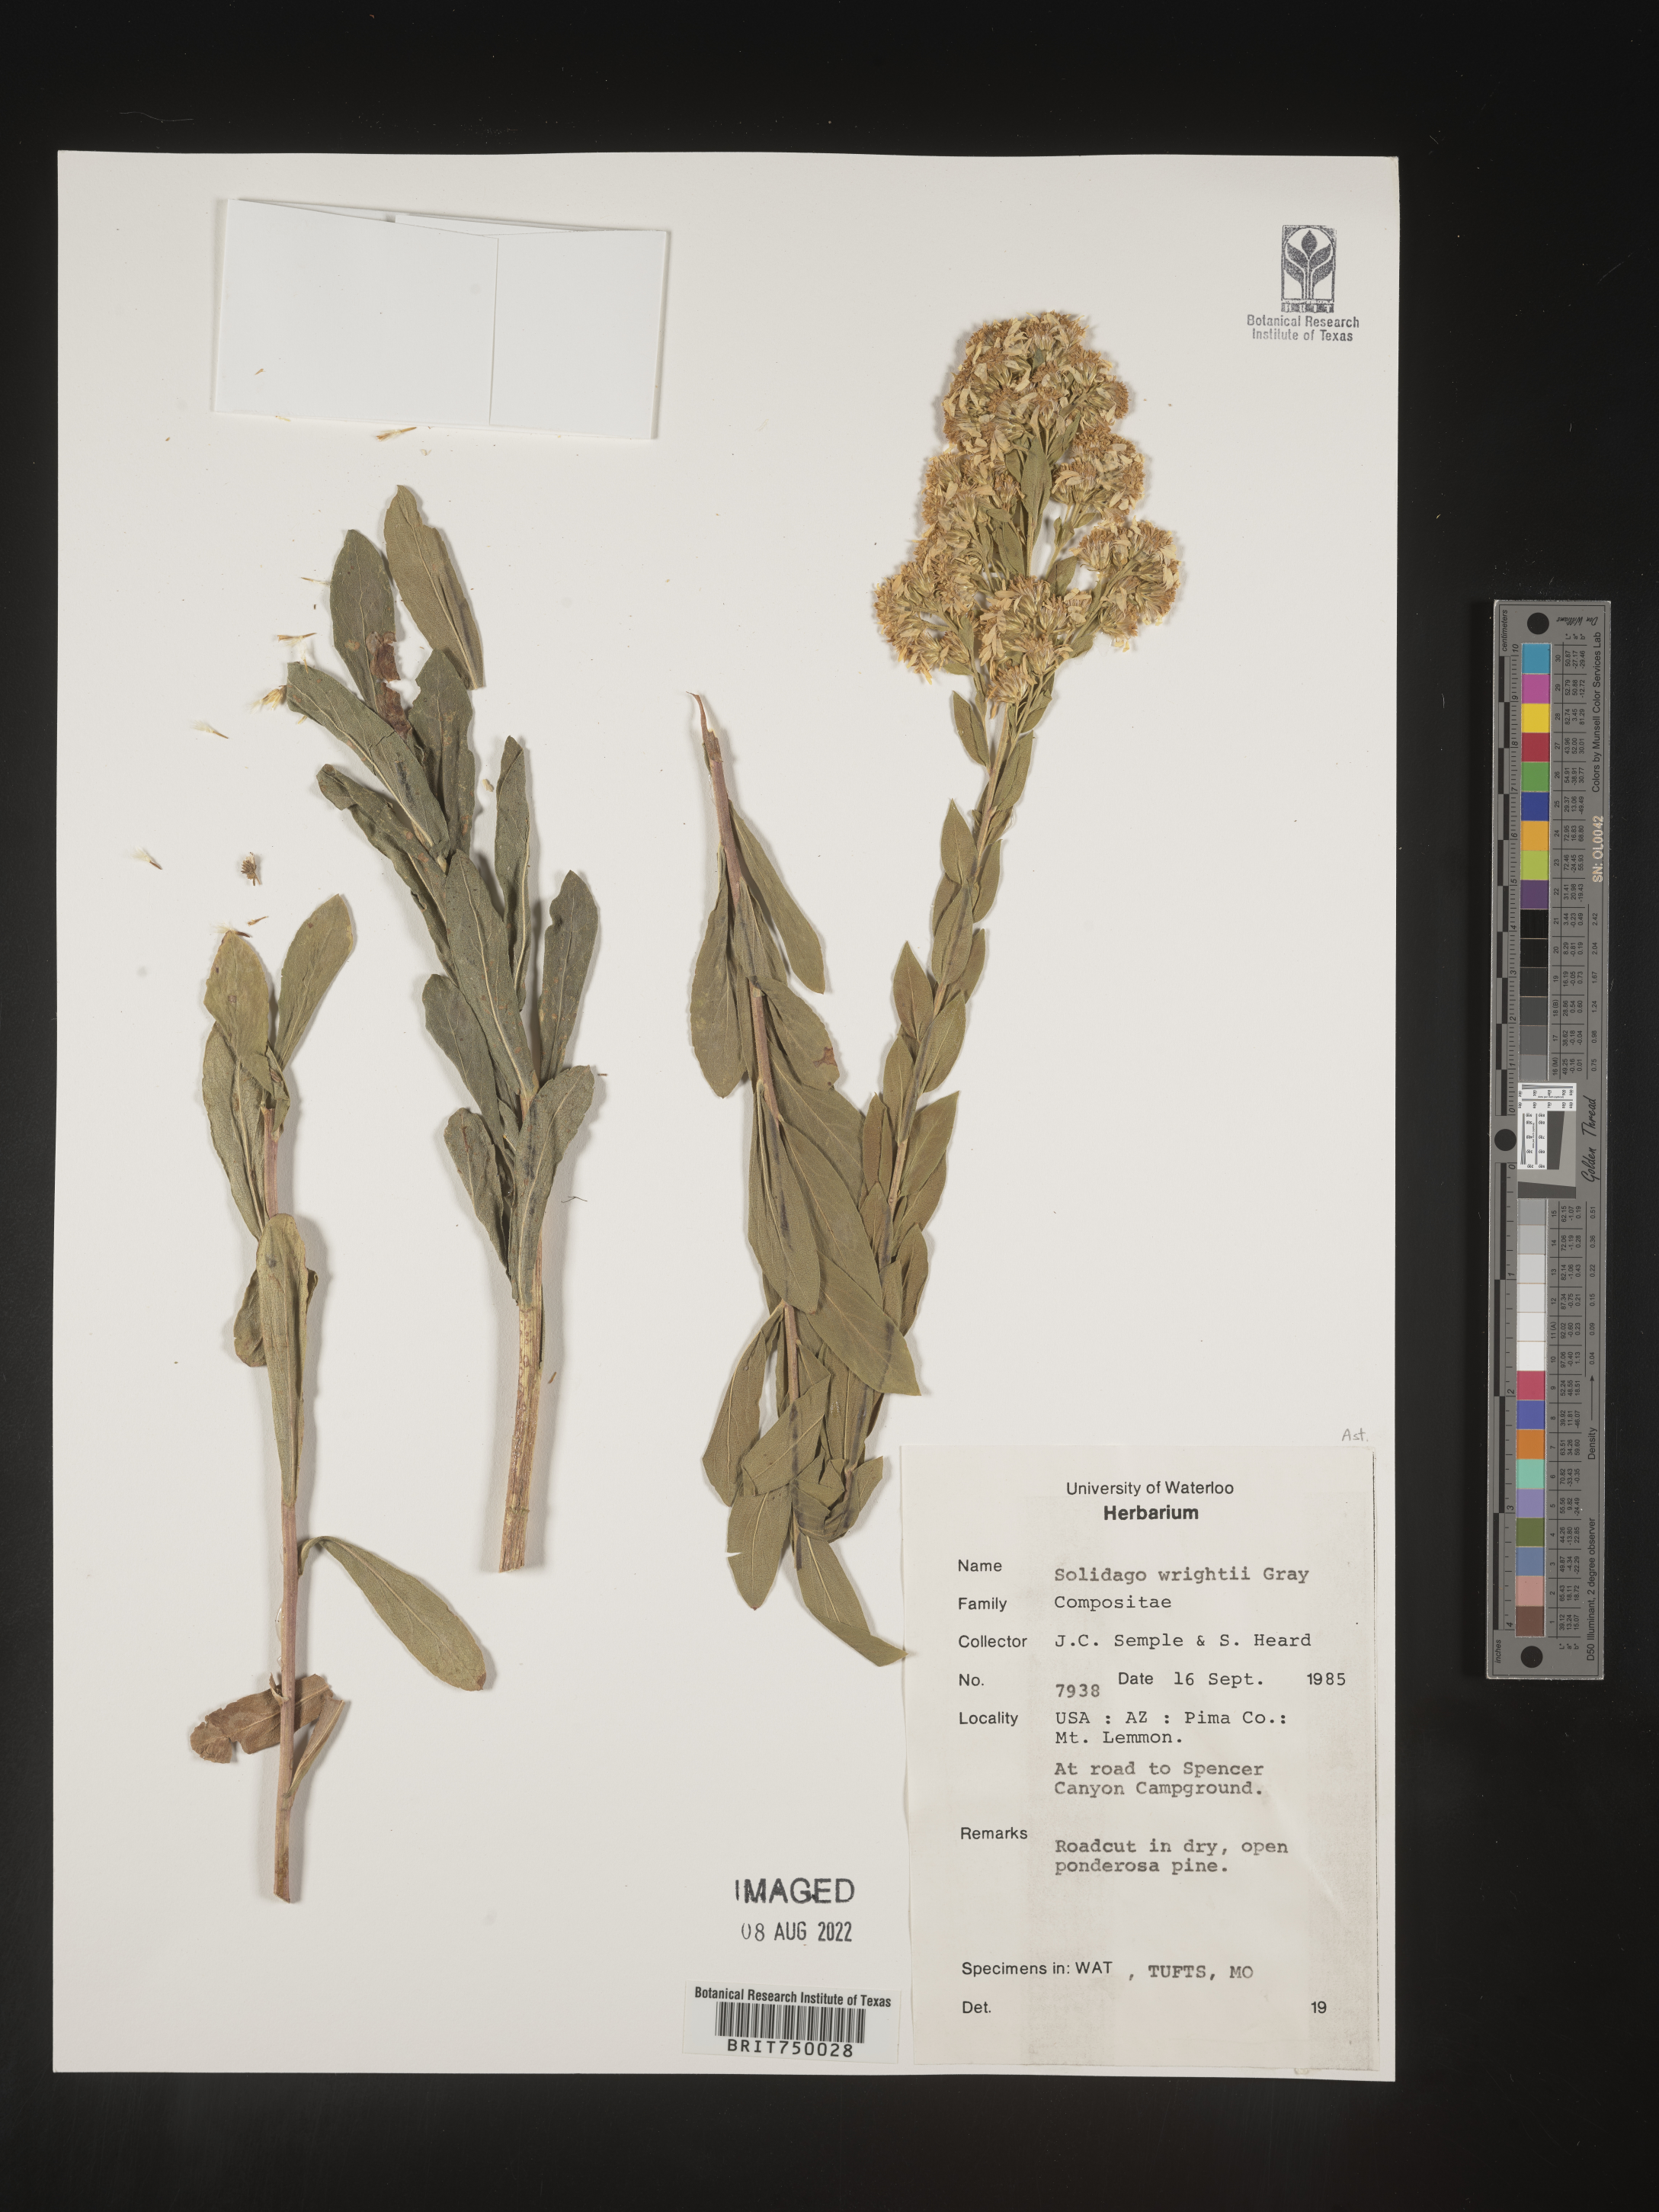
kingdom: Plantae
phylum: Tracheophyta
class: Magnoliopsida
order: Asterales
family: Asteraceae
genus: Solidago
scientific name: Solidago wrightii
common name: Wright's goldenrod
